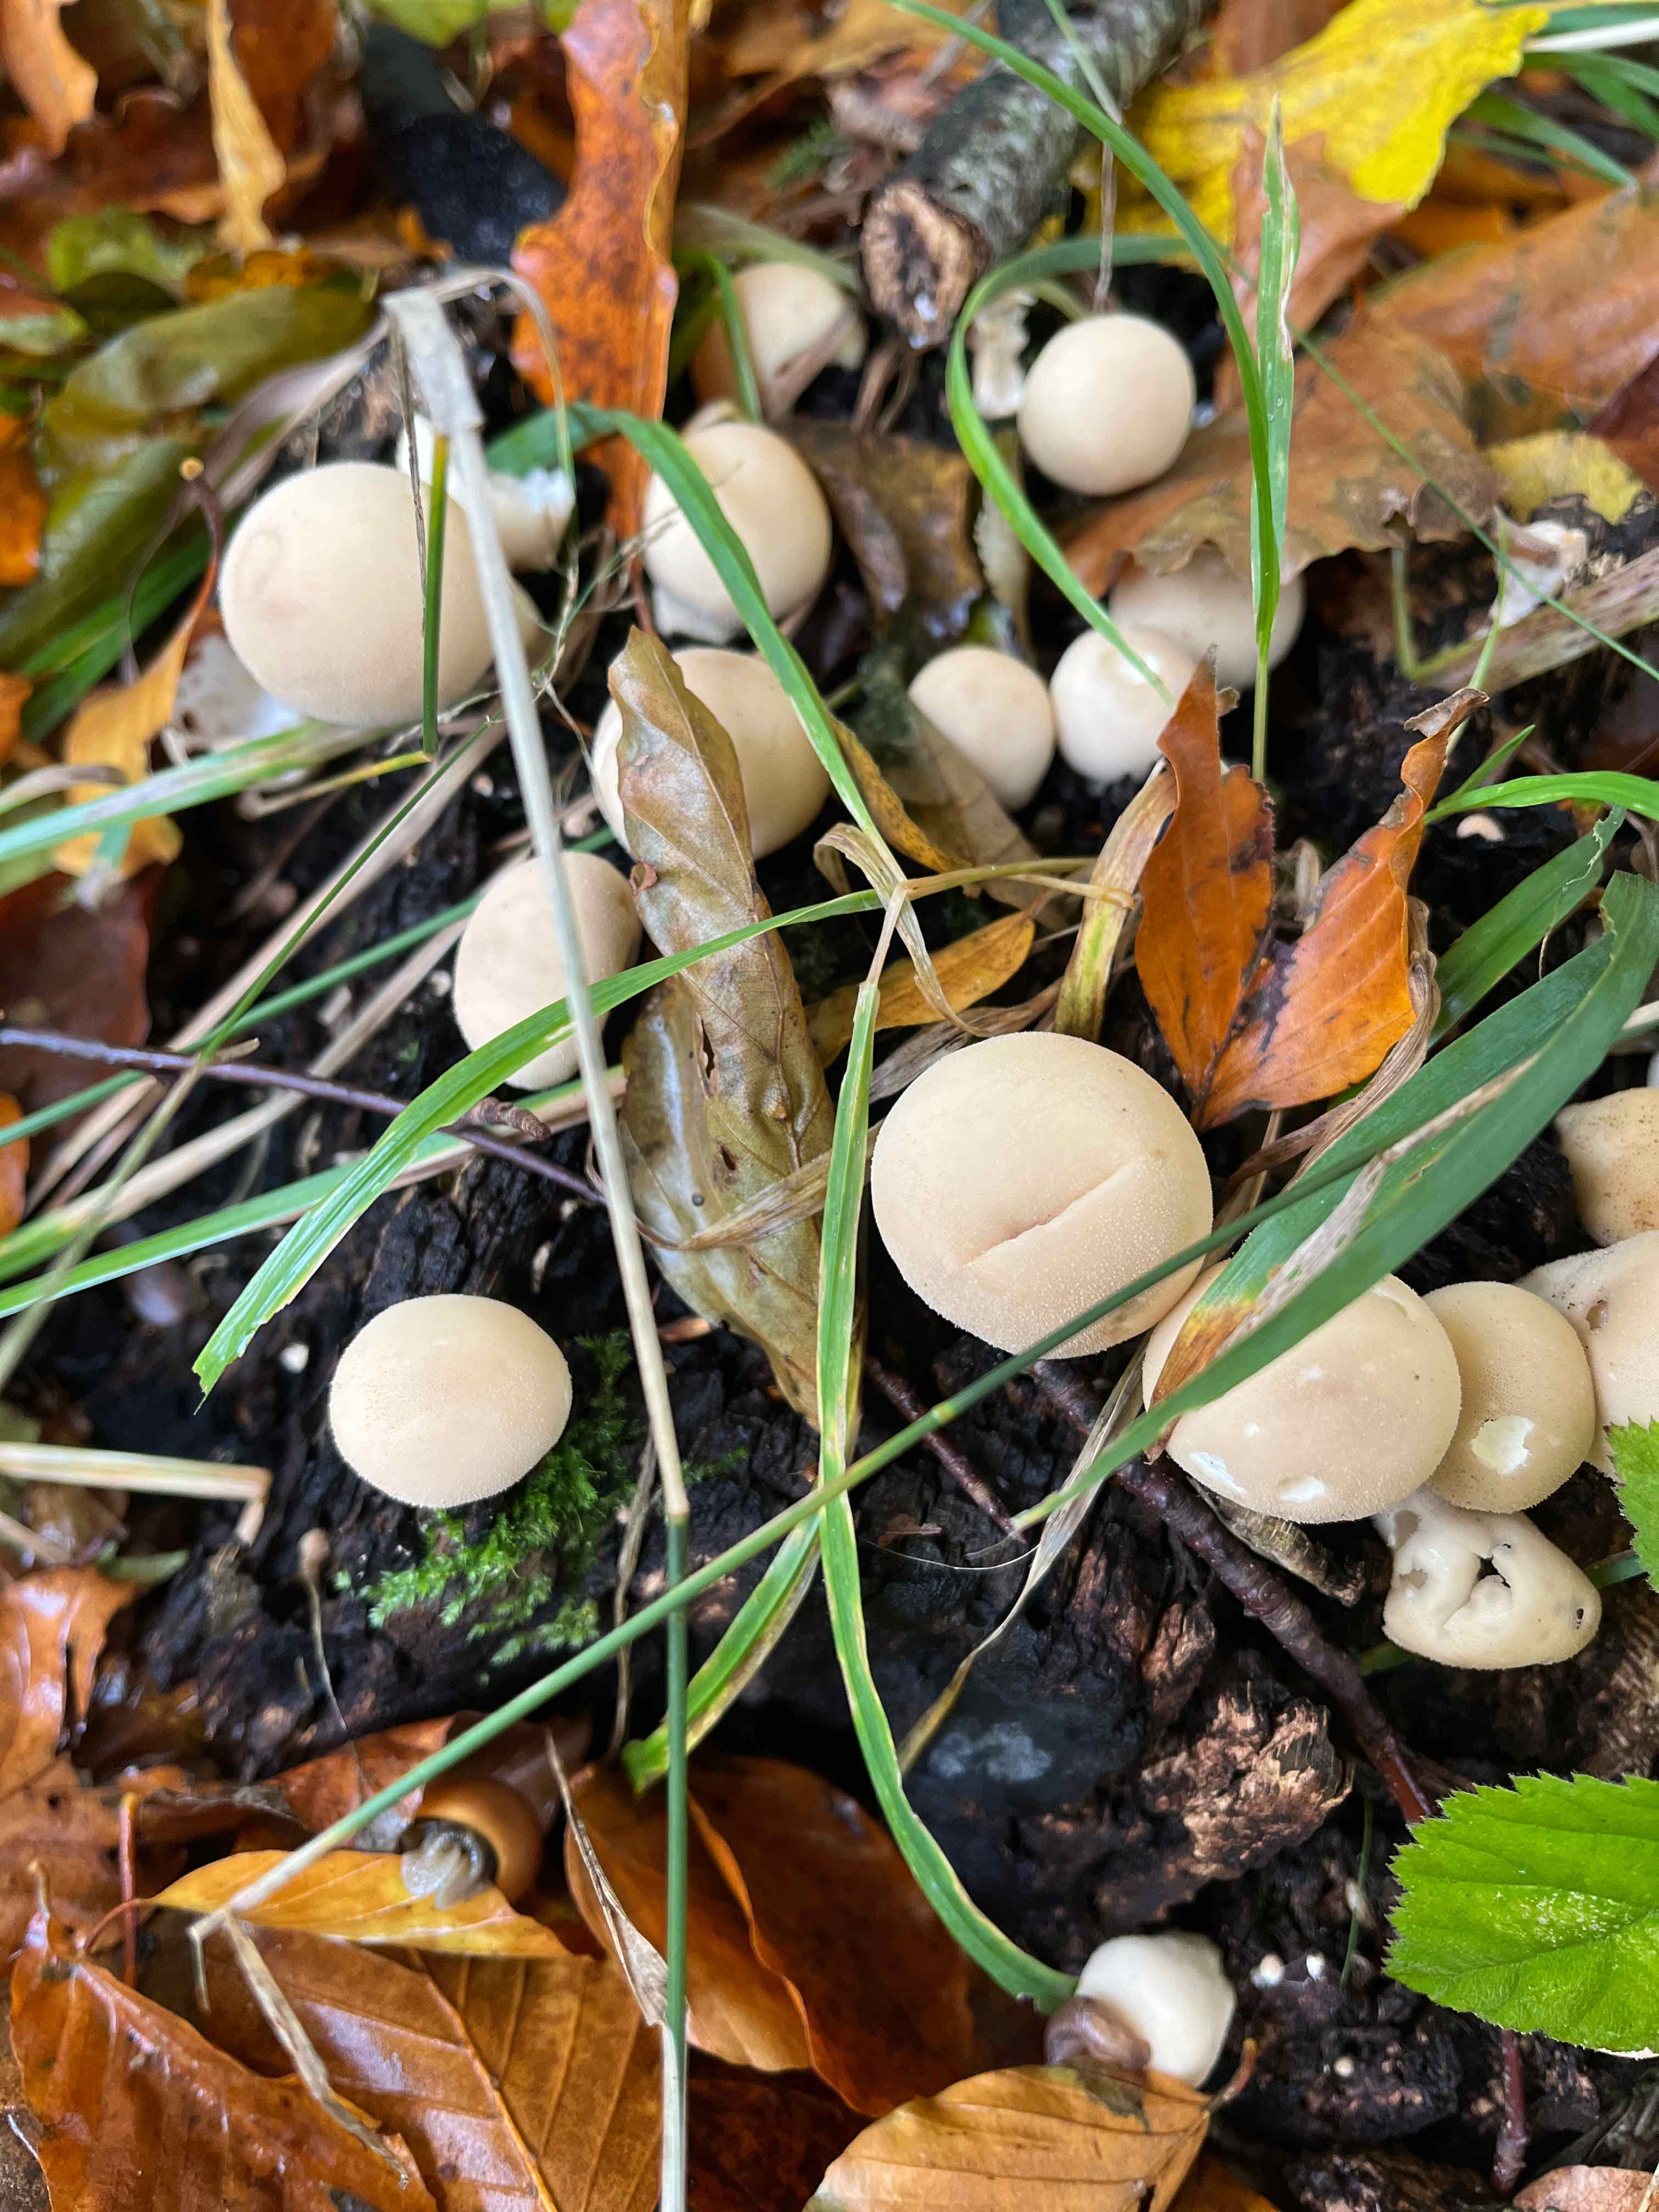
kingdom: Fungi
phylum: Basidiomycota
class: Agaricomycetes
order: Agaricales
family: Lycoperdaceae
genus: Apioperdon
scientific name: Apioperdon pyriforme
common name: pære-støvbold
